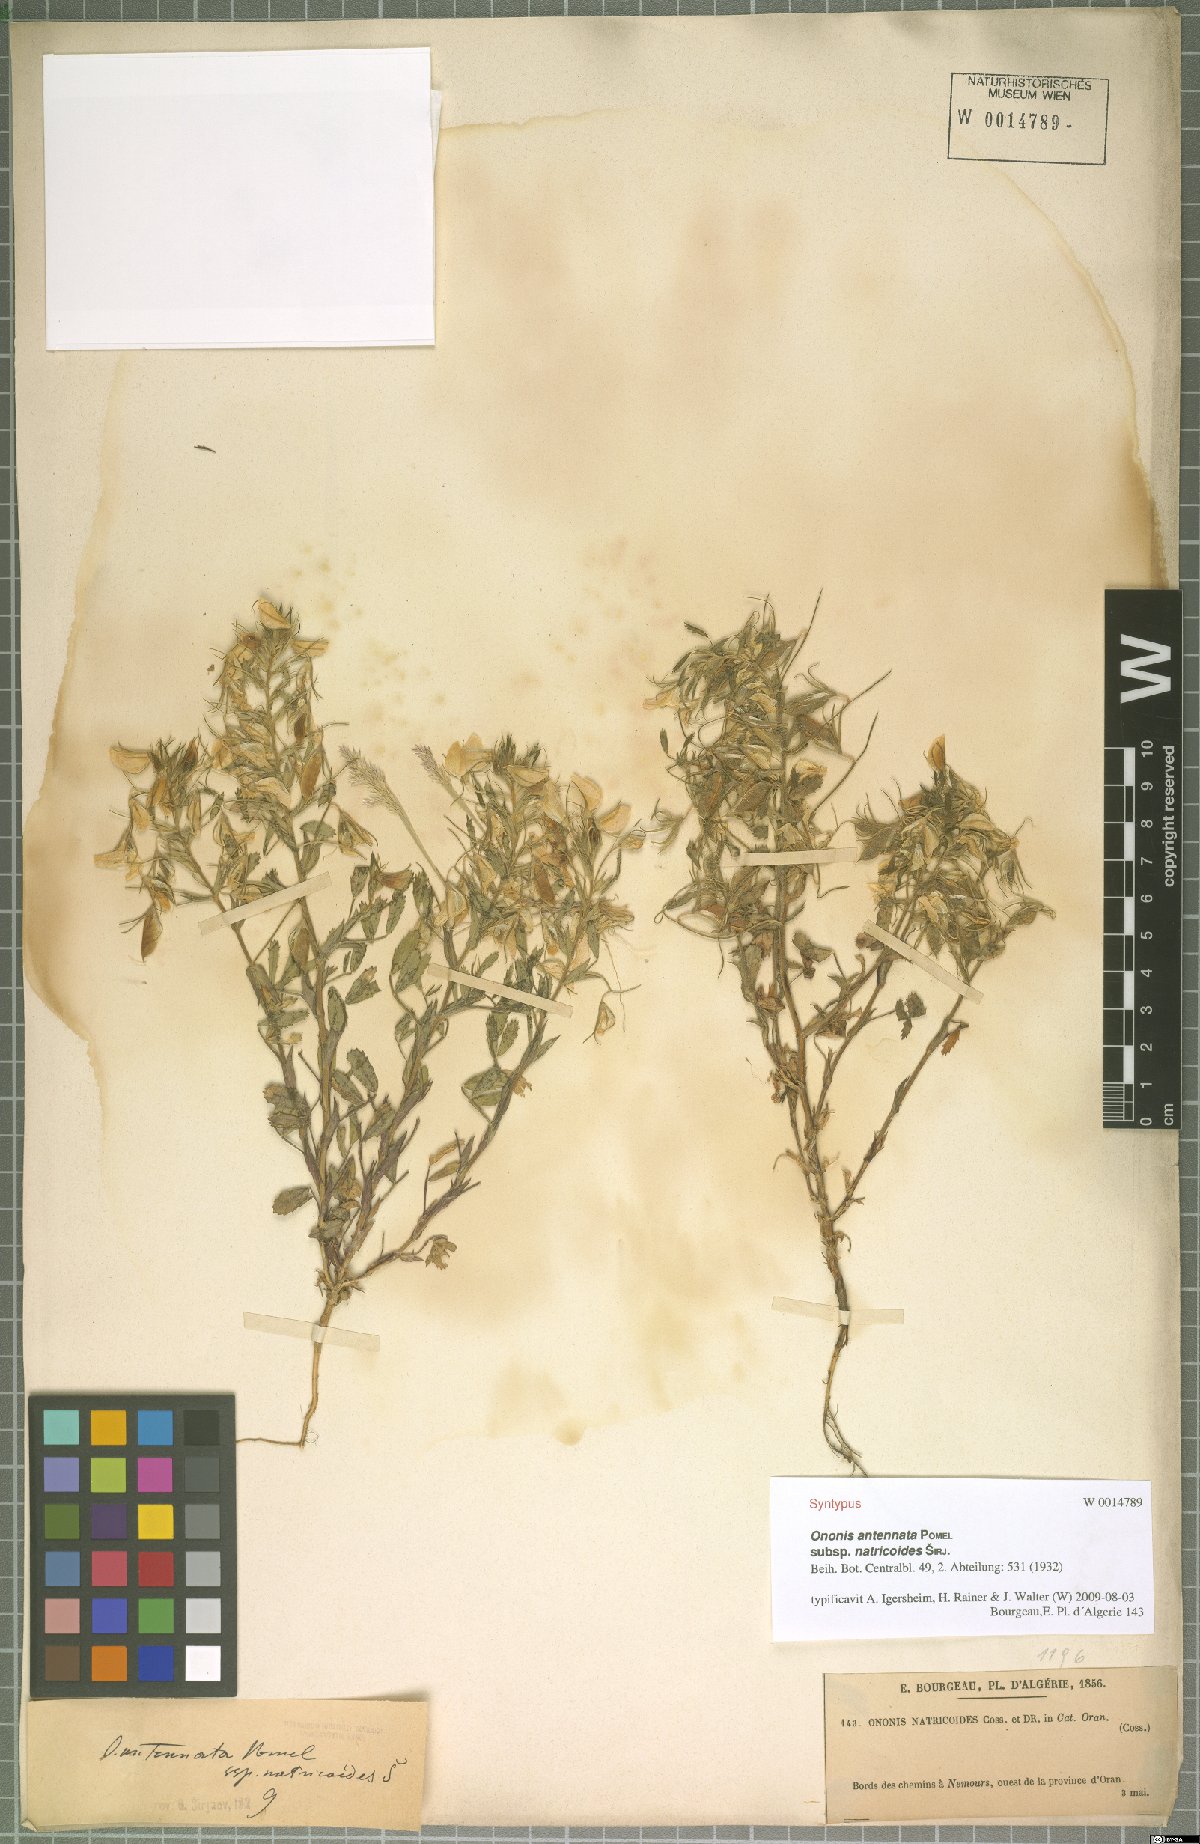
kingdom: Plantae
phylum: Tracheophyta
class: Magnoliopsida
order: Fabales
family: Fabaceae
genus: Ononis
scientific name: Ononis antennata
